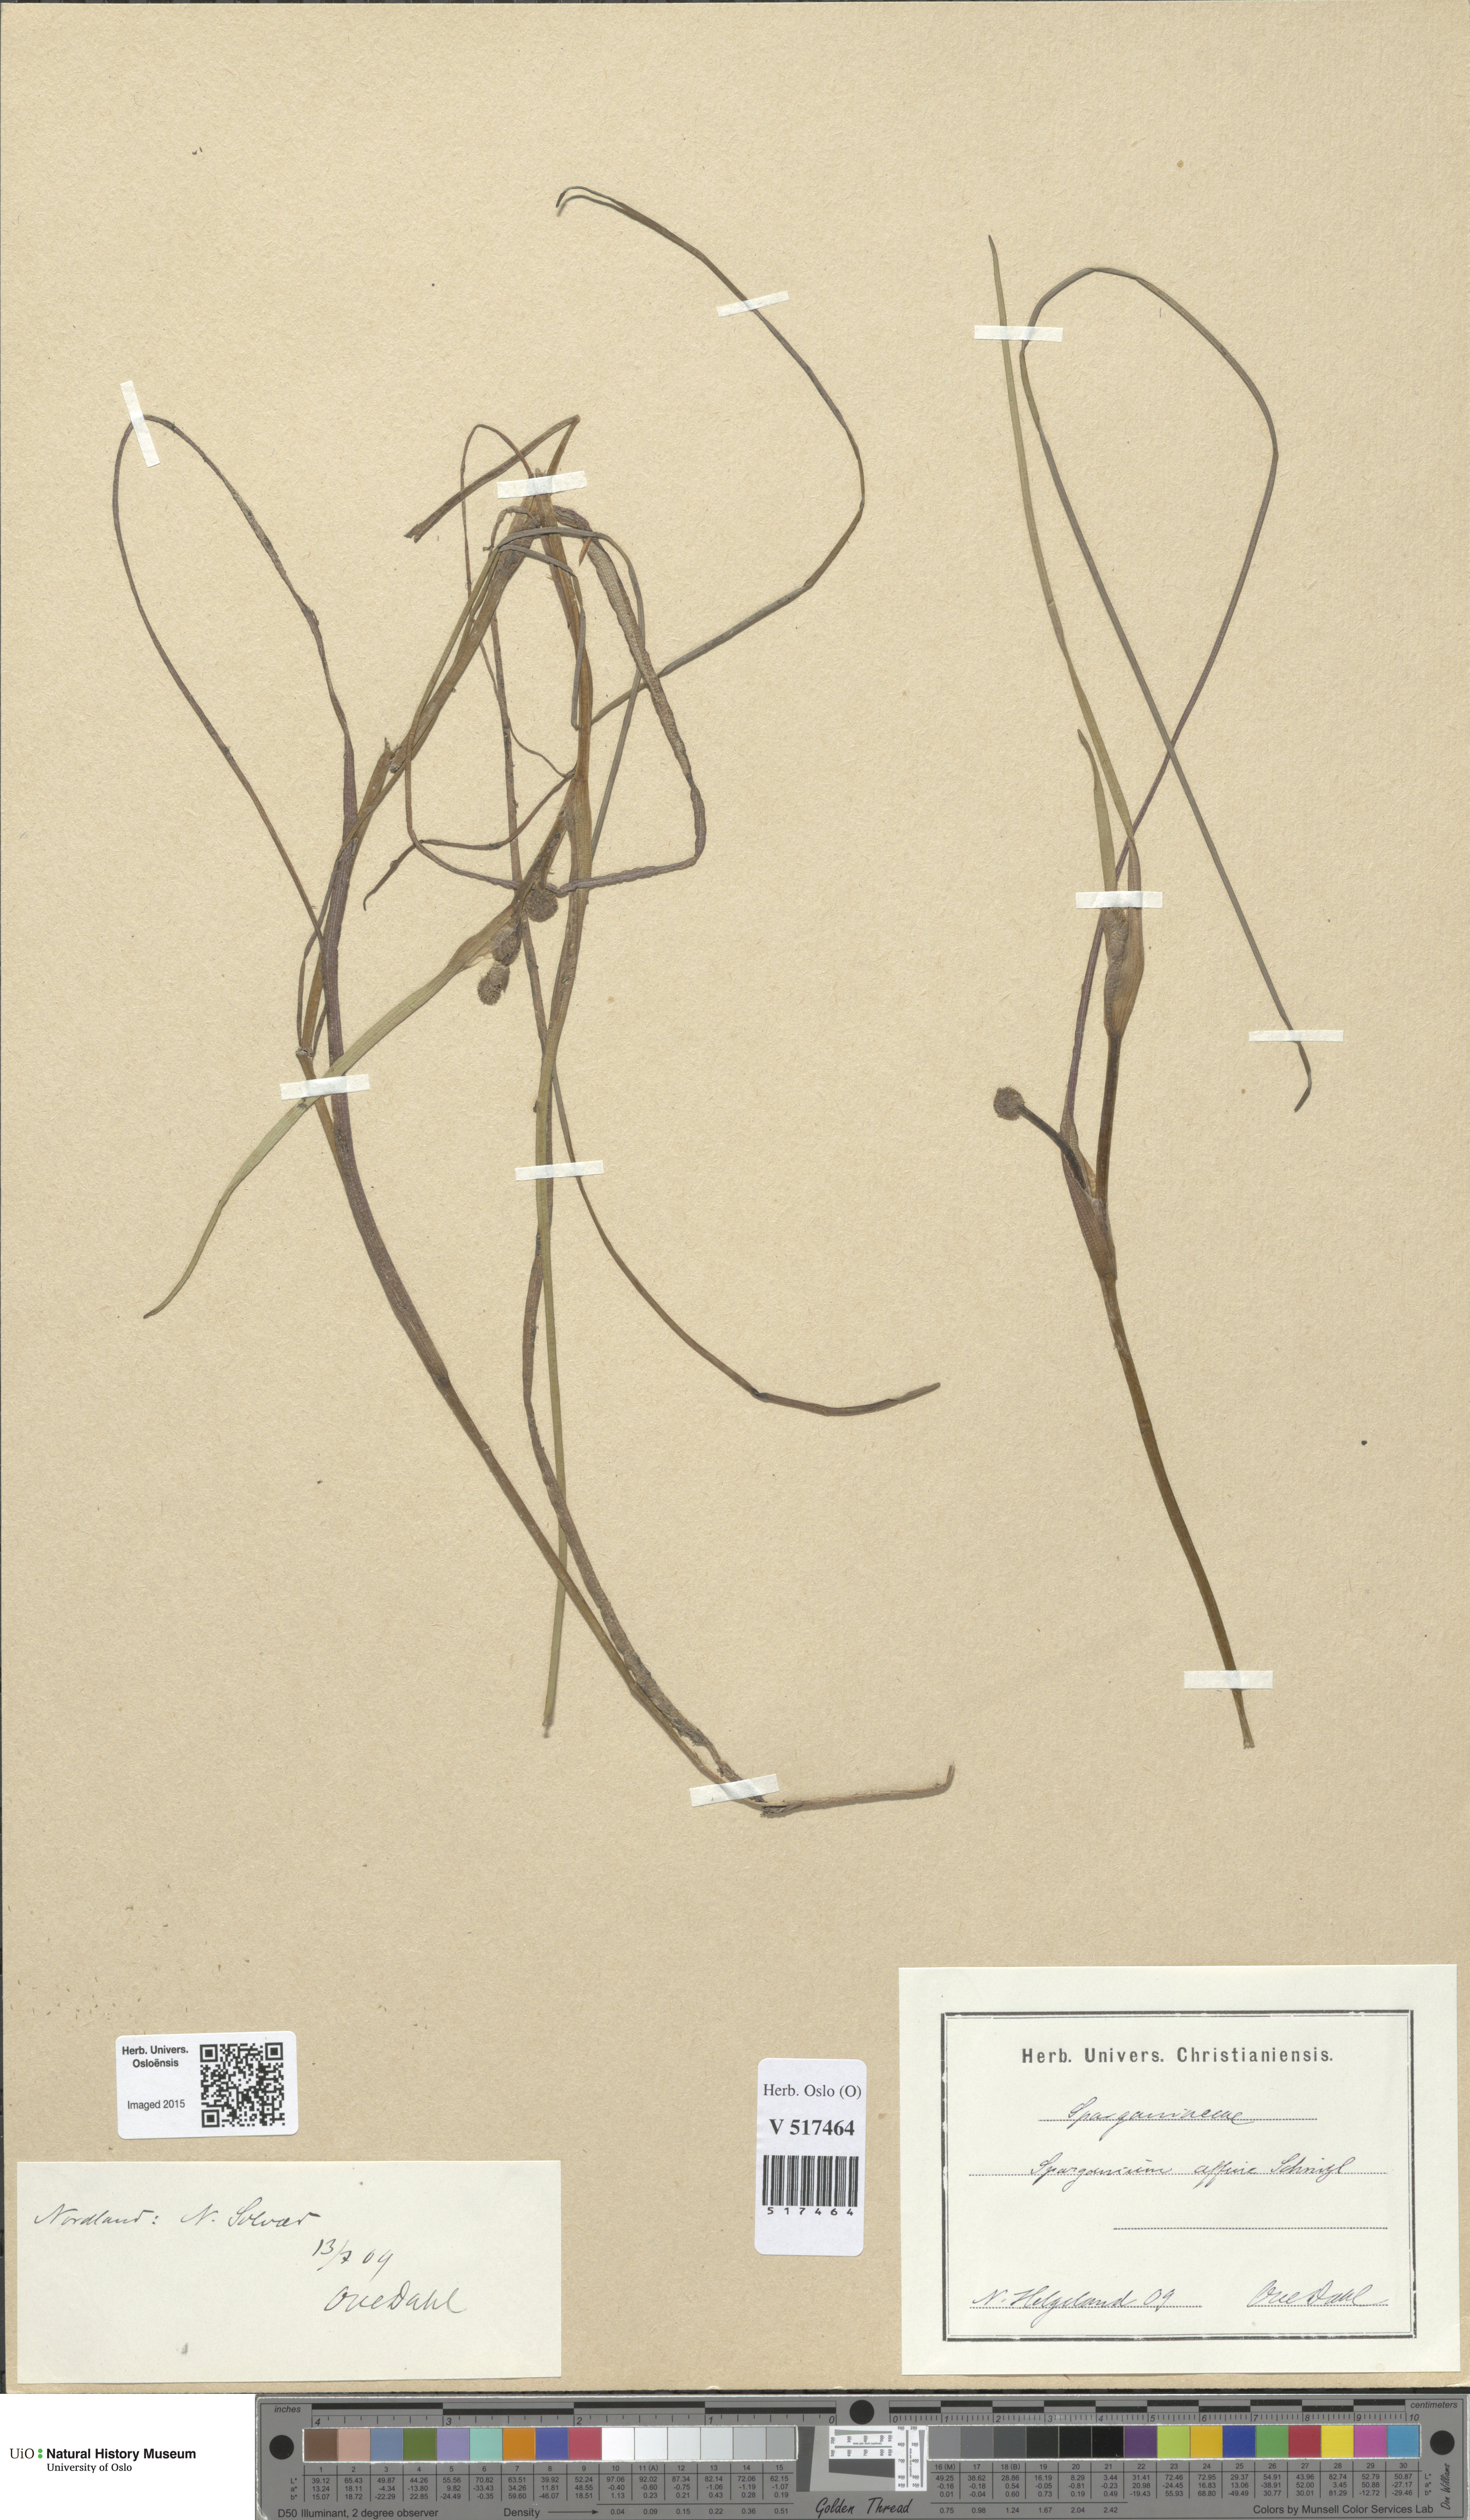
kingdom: Plantae
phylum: Tracheophyta
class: Liliopsida
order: Poales
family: Typhaceae
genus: Sparganium
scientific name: Sparganium angustifolium
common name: Floating bur-reed
